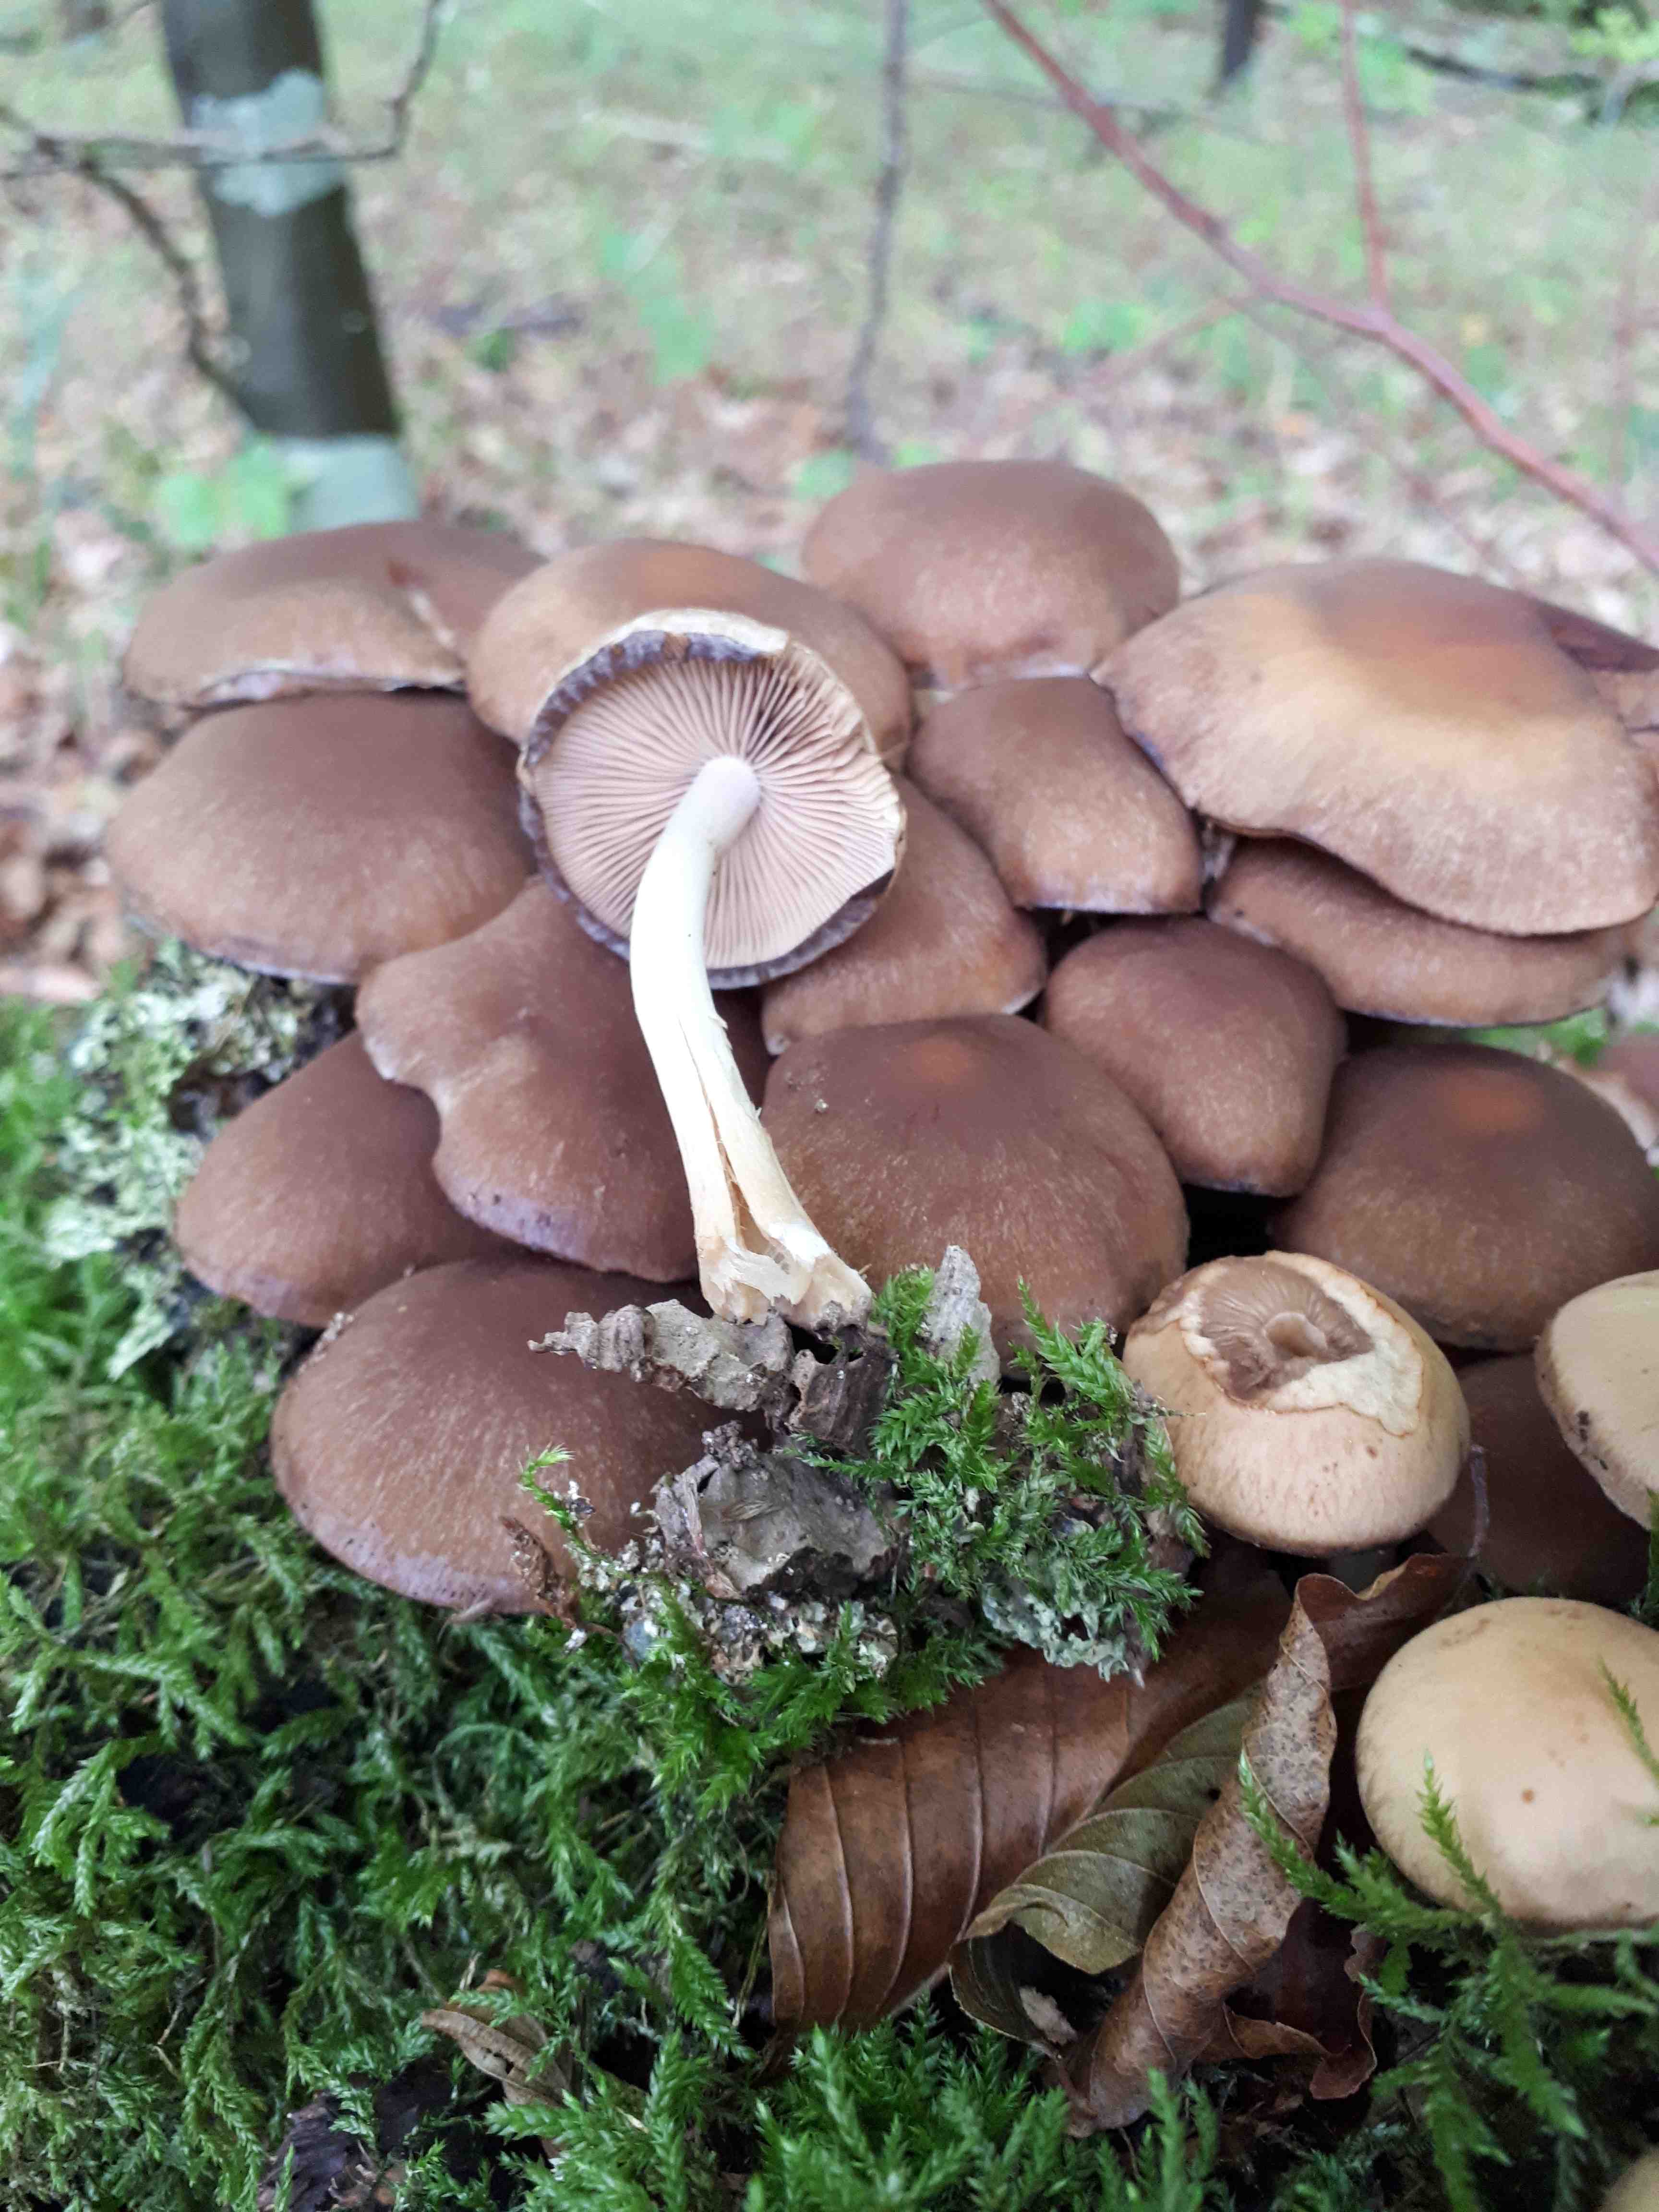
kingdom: Fungi
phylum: Basidiomycota
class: Agaricomycetes
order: Agaricales
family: Psathyrellaceae
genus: Psathyrella
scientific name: Psathyrella piluliformis
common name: lysstokket mørkhat
